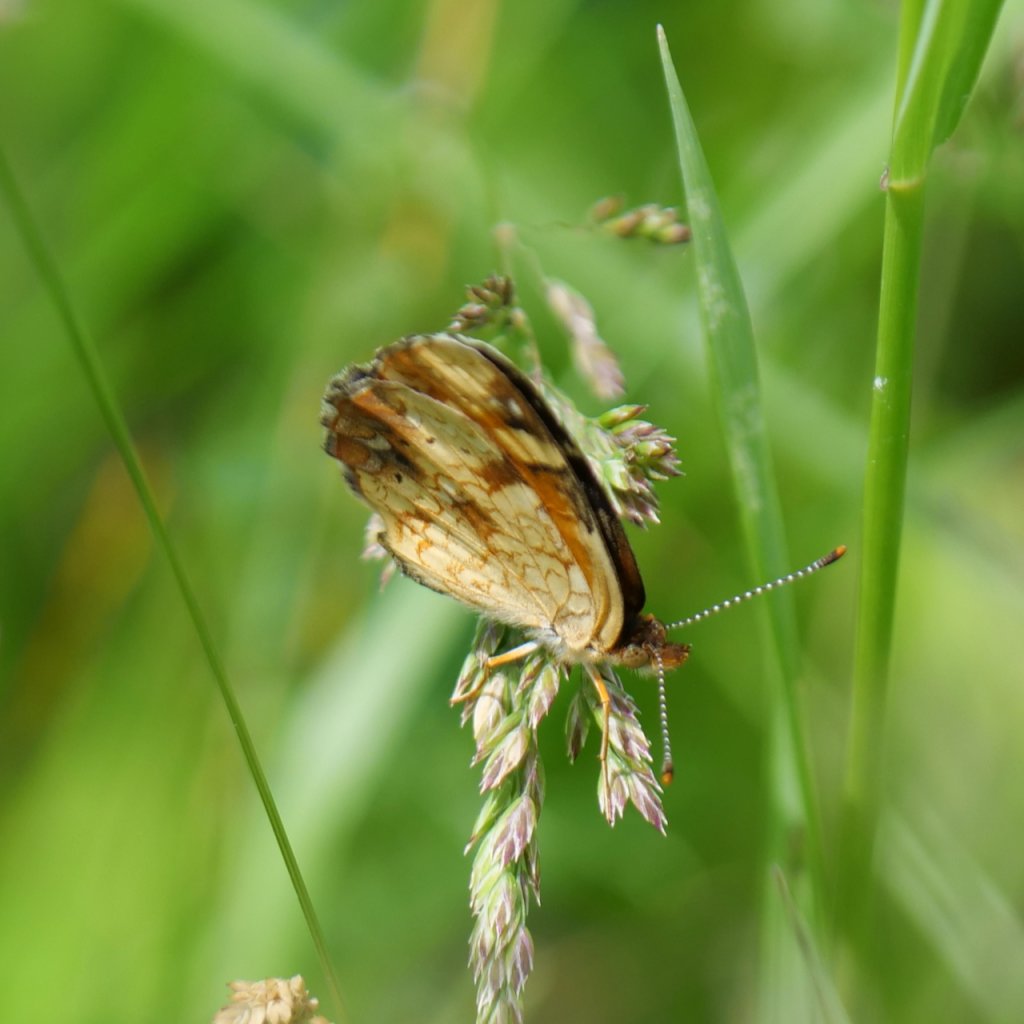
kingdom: Animalia
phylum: Arthropoda
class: Insecta
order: Lepidoptera
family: Nymphalidae
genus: Phyciodes
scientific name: Phyciodes tharos
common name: Northern Crescent
